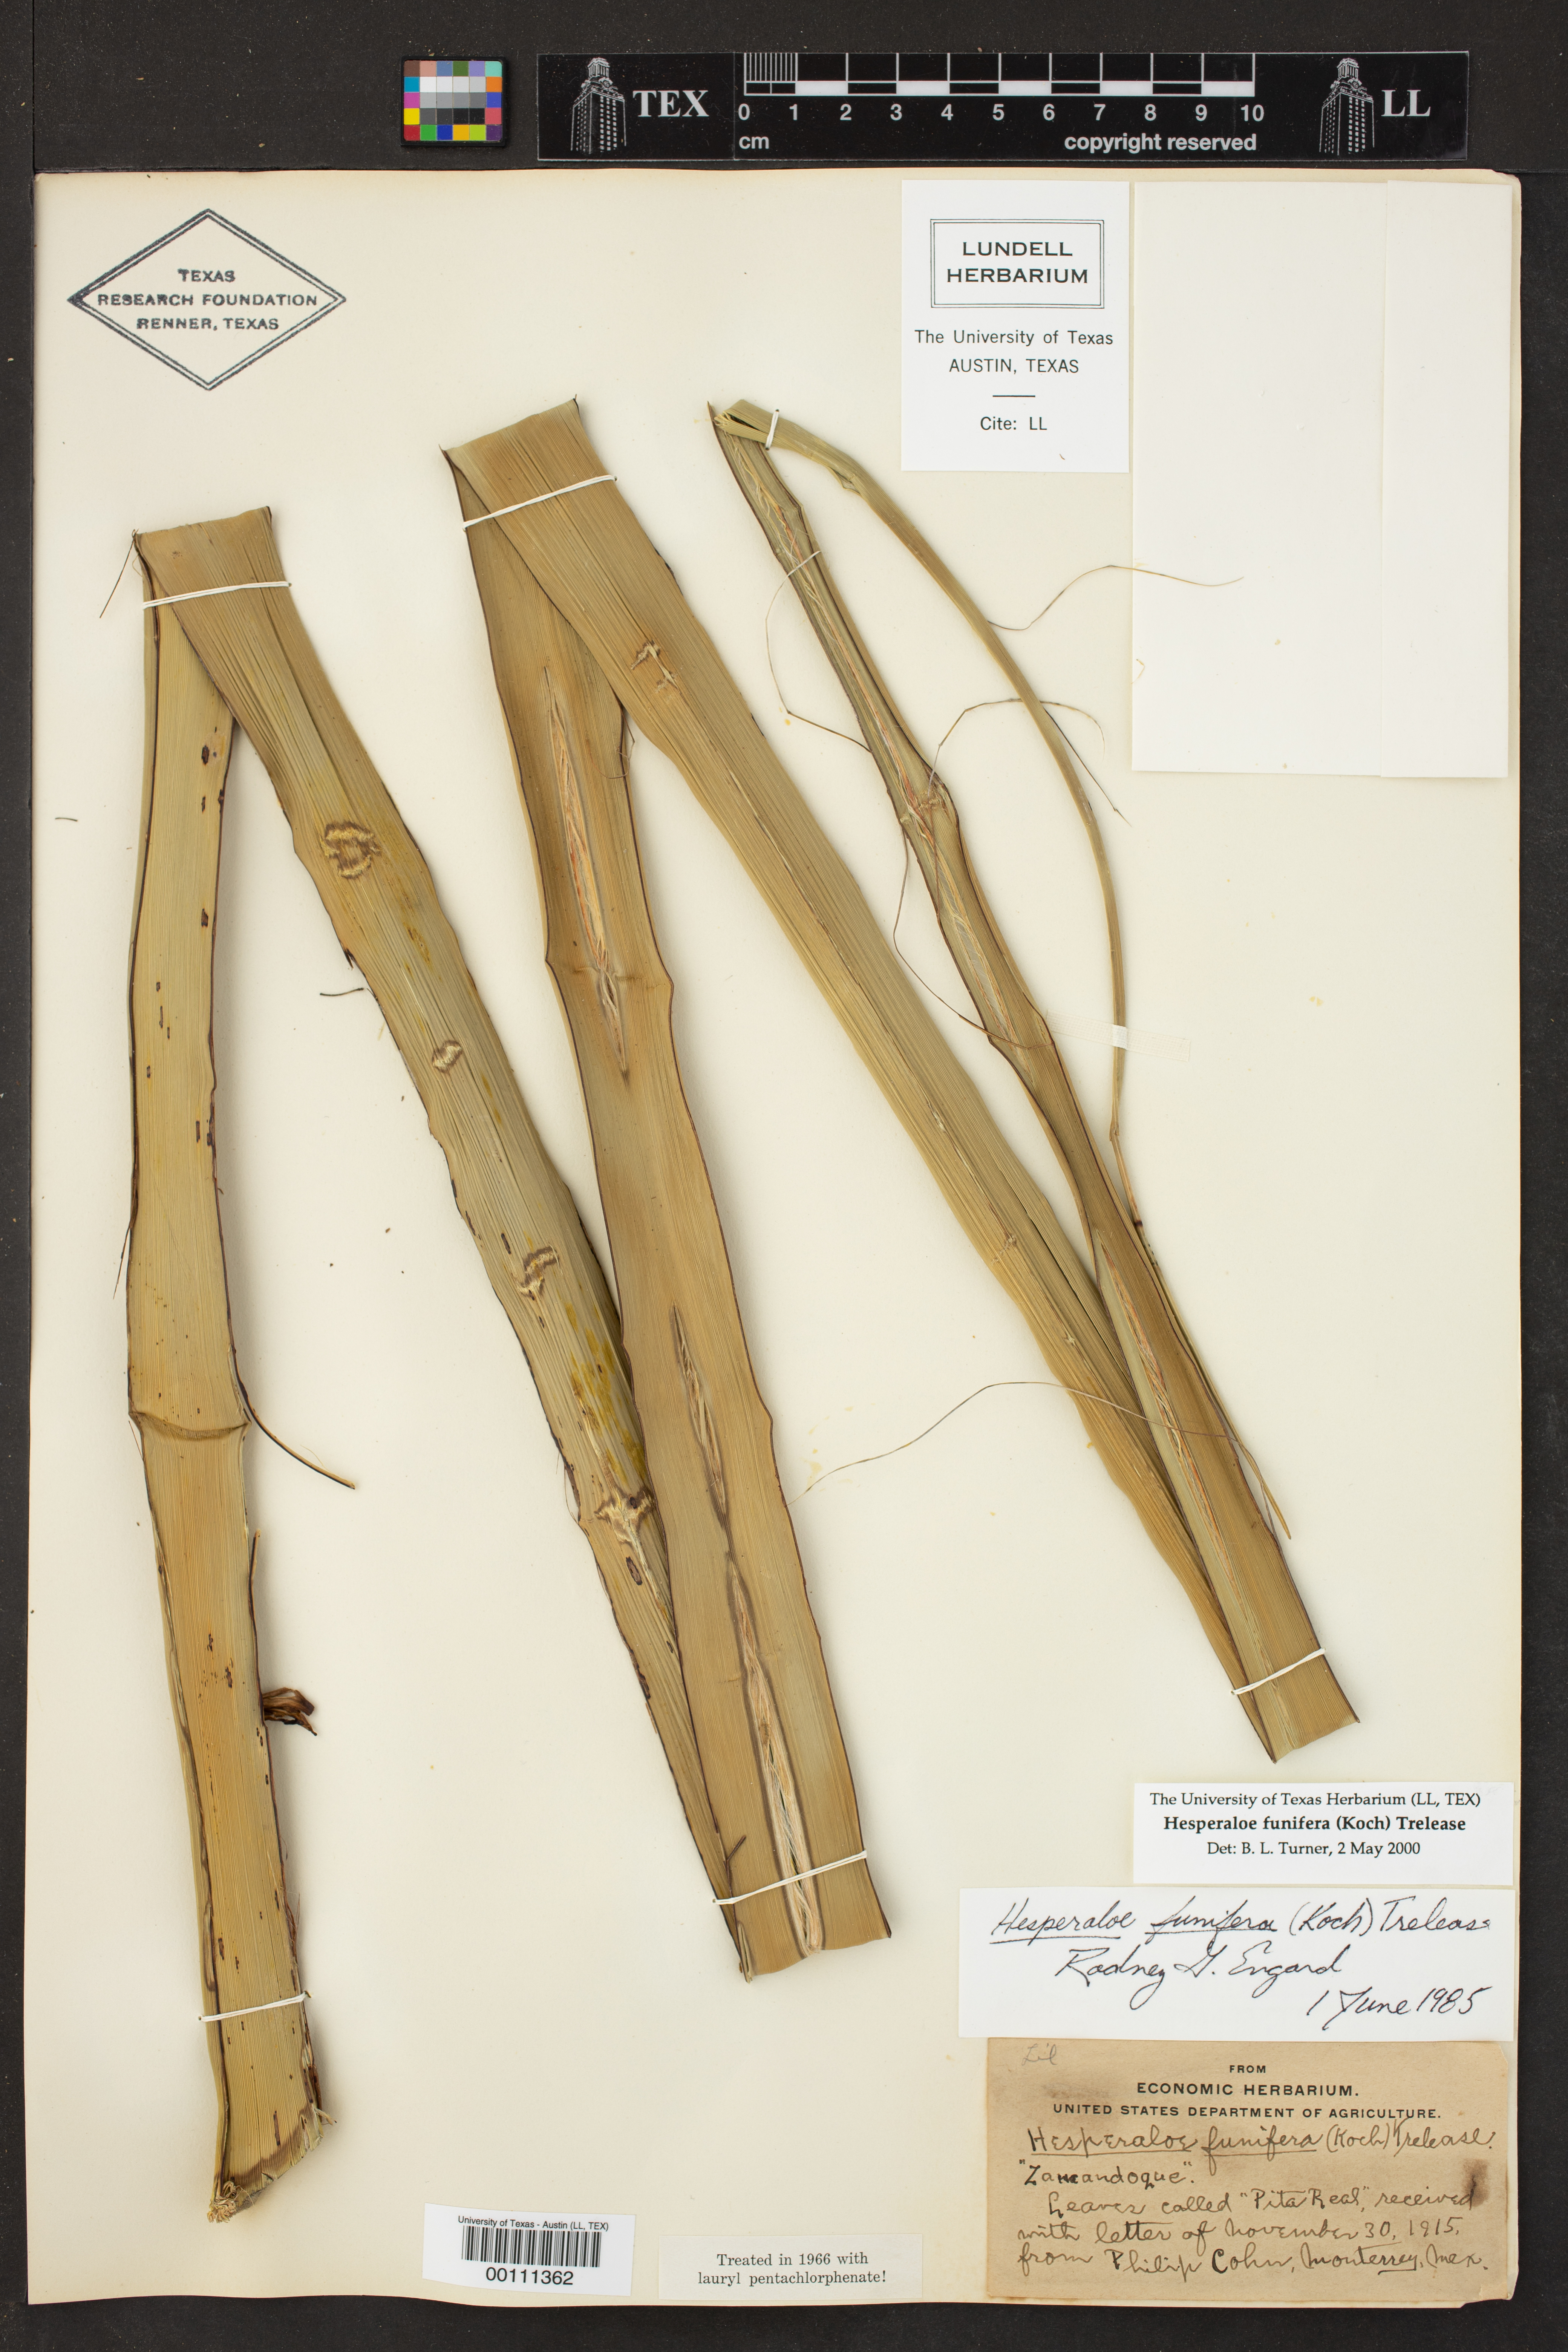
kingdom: Plantae
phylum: Tracheophyta
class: Liliopsida
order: Asparagales
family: Asparagaceae
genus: Hesperaloe
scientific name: Hesperaloe funifera
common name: Giant hesperaloe
